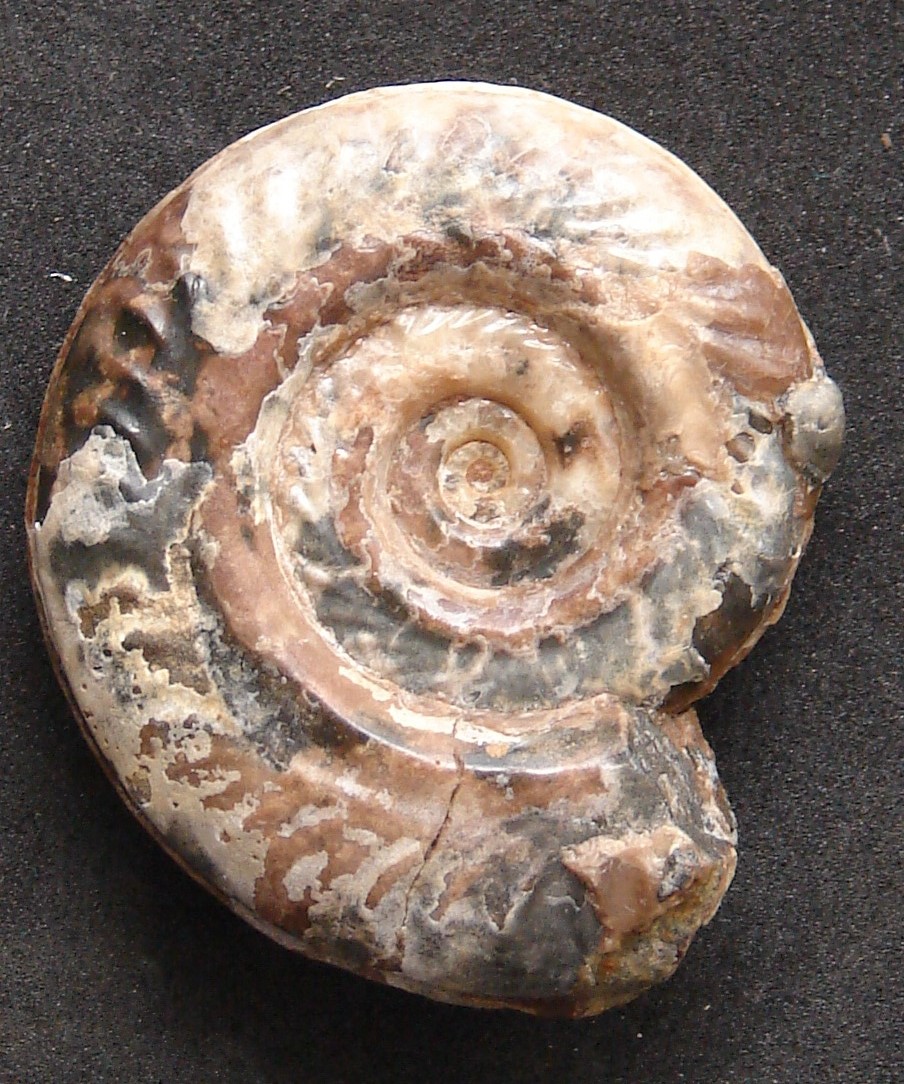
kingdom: Animalia
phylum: Mollusca
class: Cephalopoda
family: Hildoceratidae
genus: Hildoceras
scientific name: Hildoceras lusitanicum
